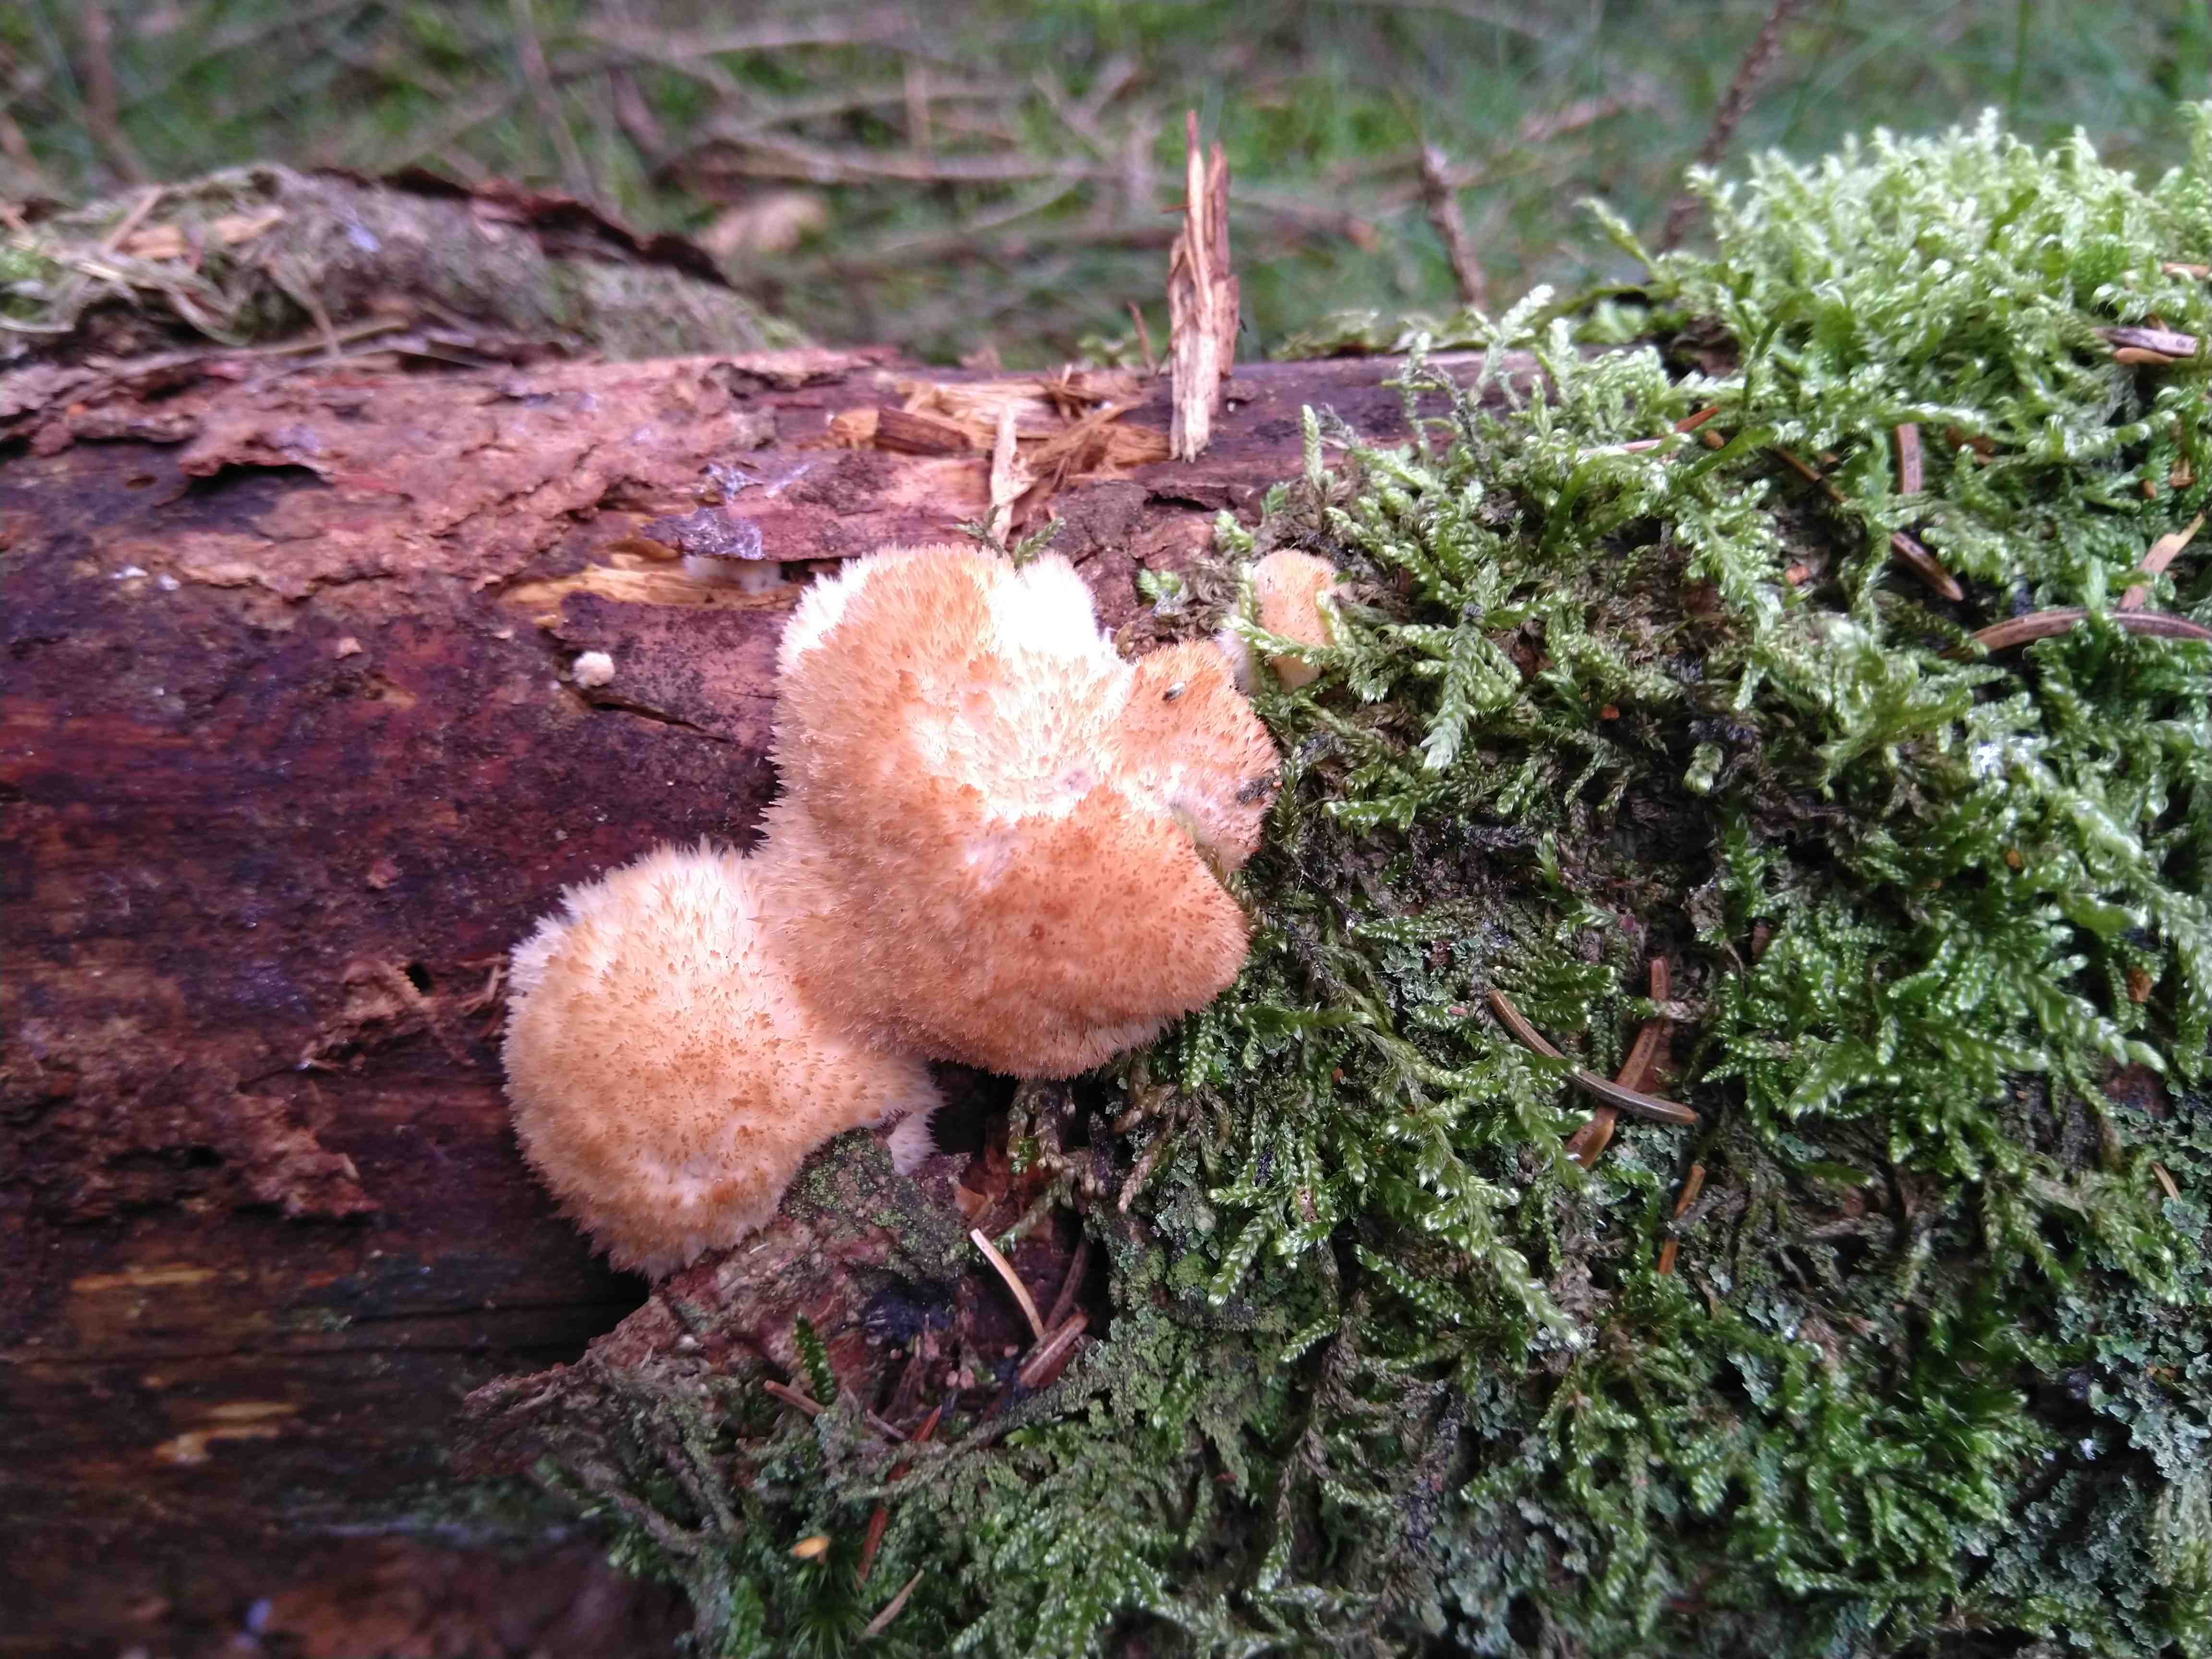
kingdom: Fungi
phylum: Basidiomycota
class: Agaricomycetes
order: Polyporales
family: Dacryobolaceae
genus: Postia
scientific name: Postia ptychogaster
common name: støvende kødporesvamp
